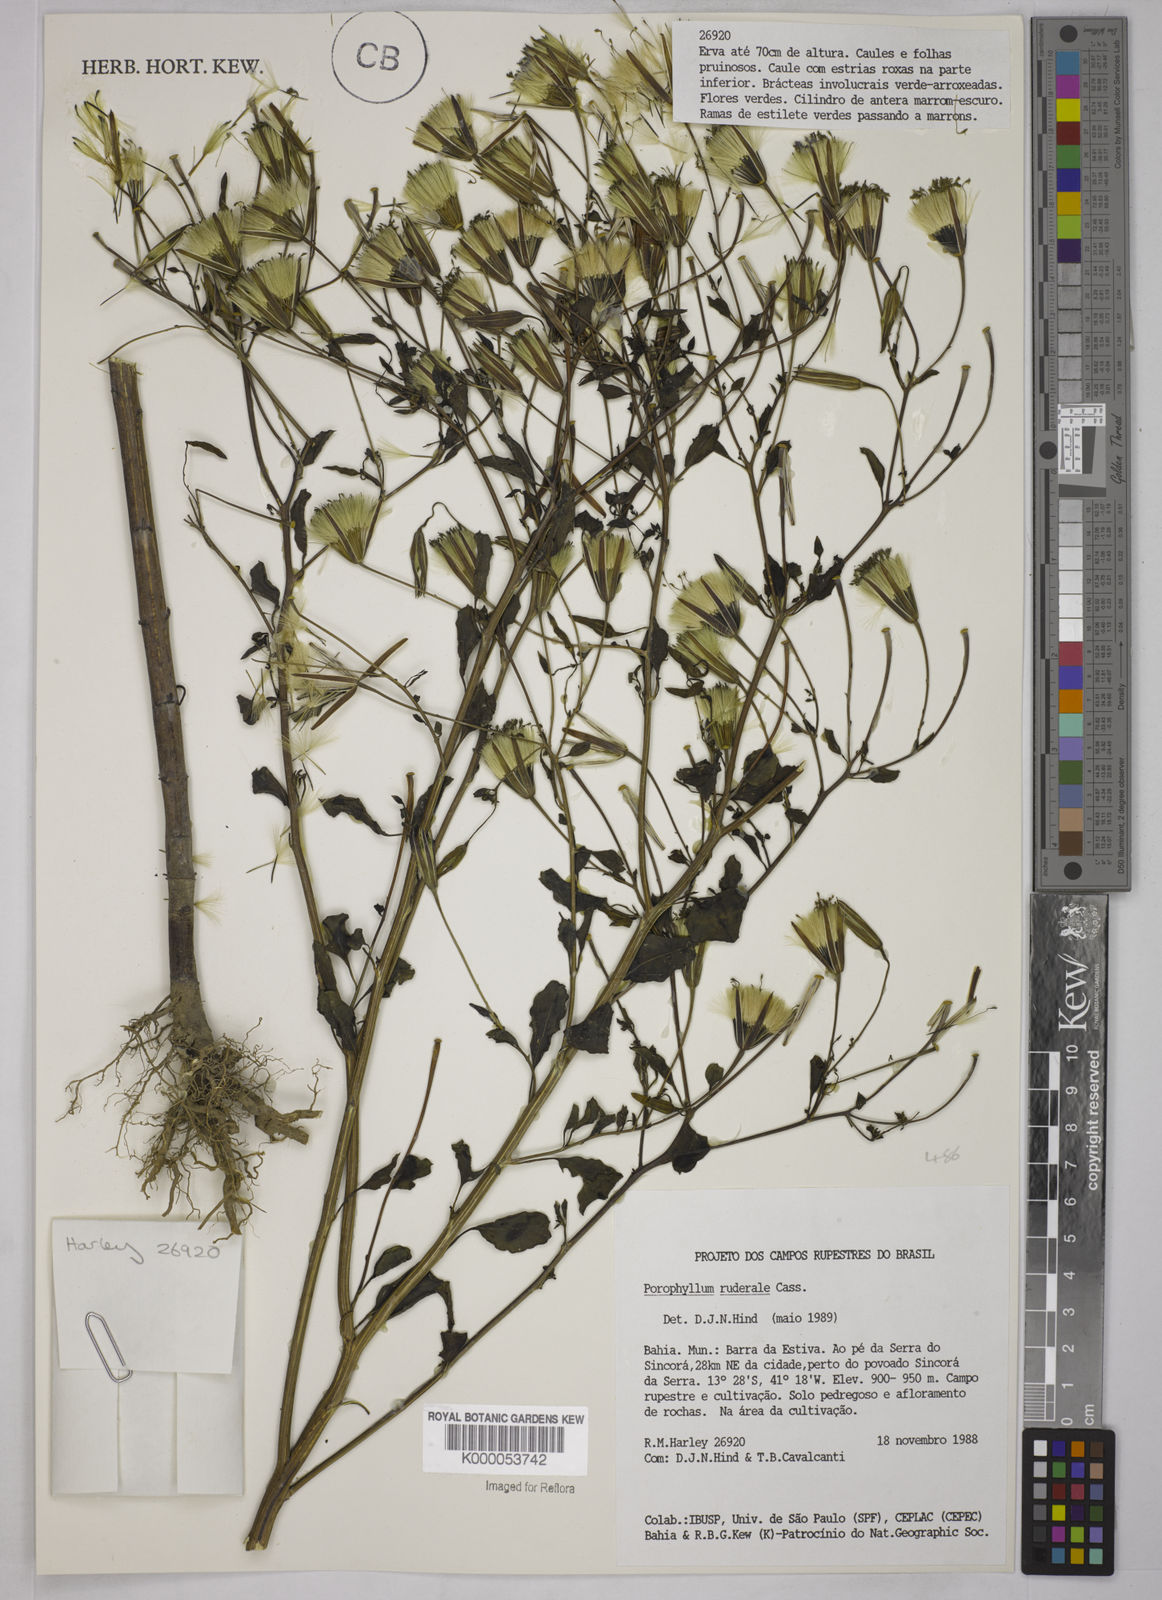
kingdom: Plantae
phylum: Tracheophyta
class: Magnoliopsida
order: Asterales
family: Asteraceae
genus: Porophyllum
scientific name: Porophyllum ruderale
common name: Yerba porosa
